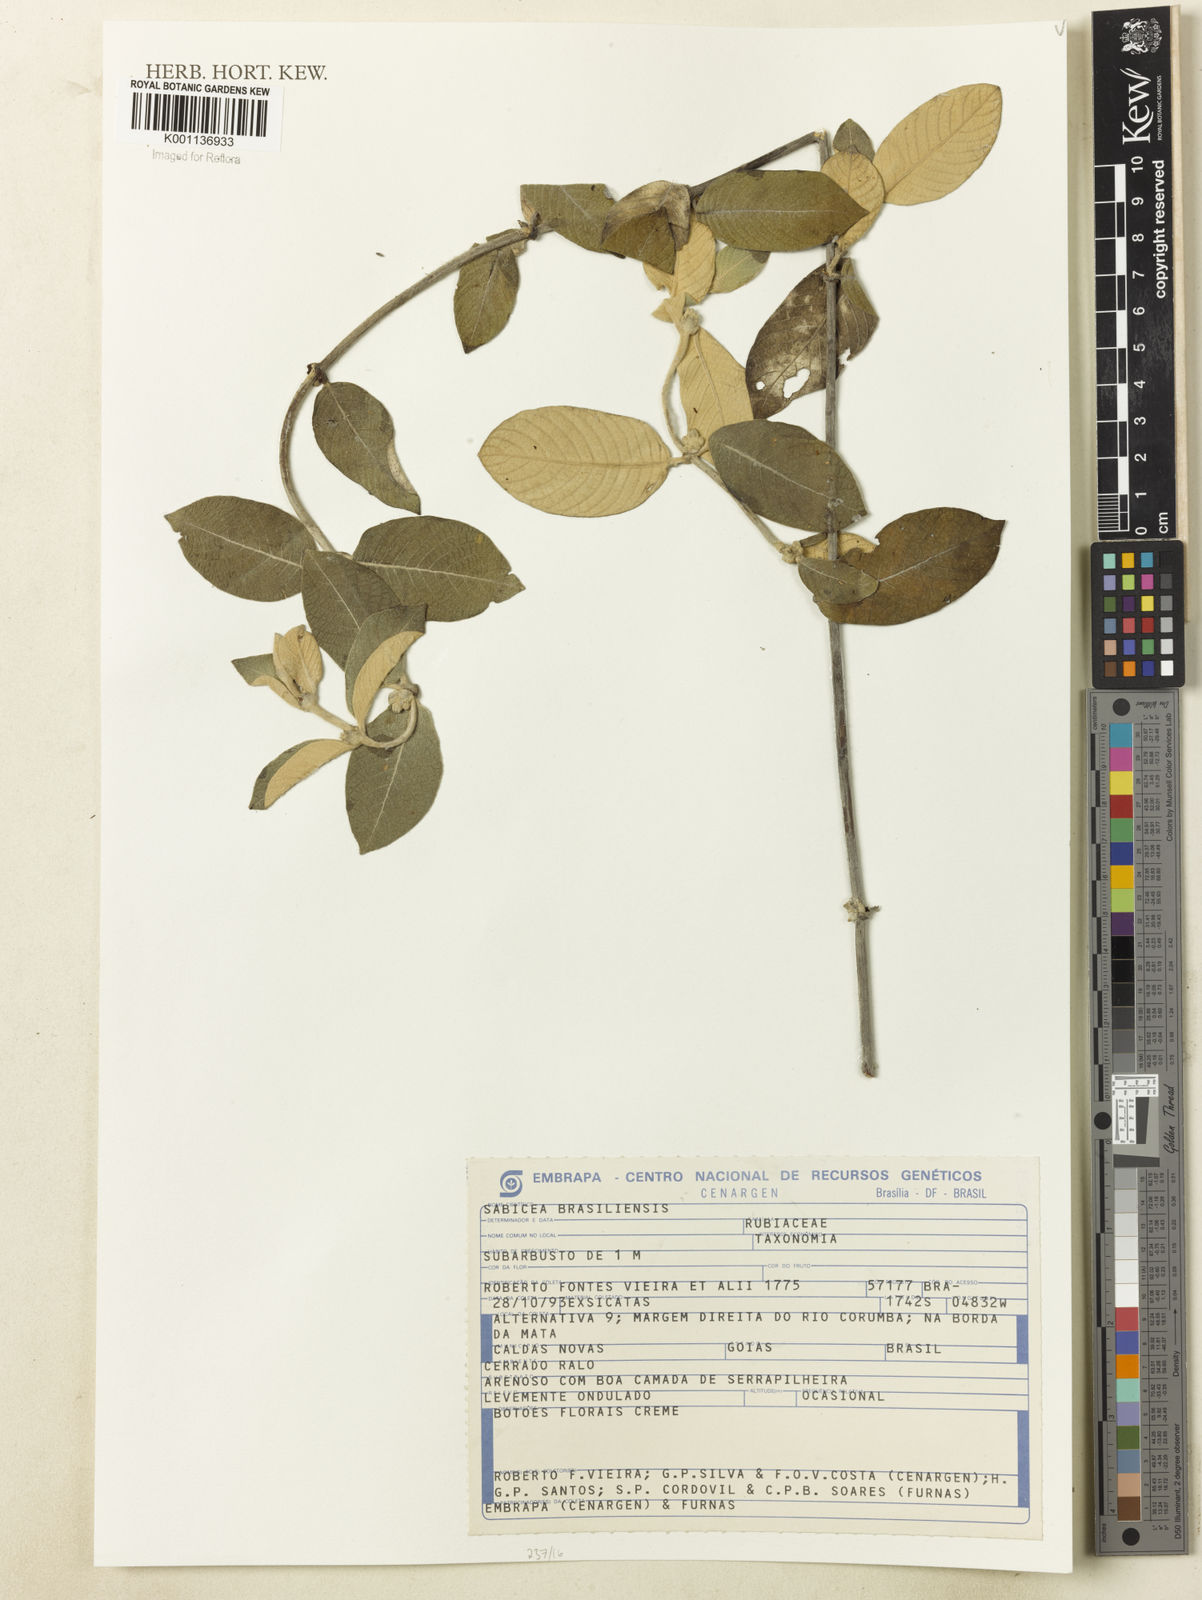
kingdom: Plantae
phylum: Tracheophyta
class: Magnoliopsida
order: Gentianales
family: Rubiaceae
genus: Sabicea
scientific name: Sabicea brasiliensis
